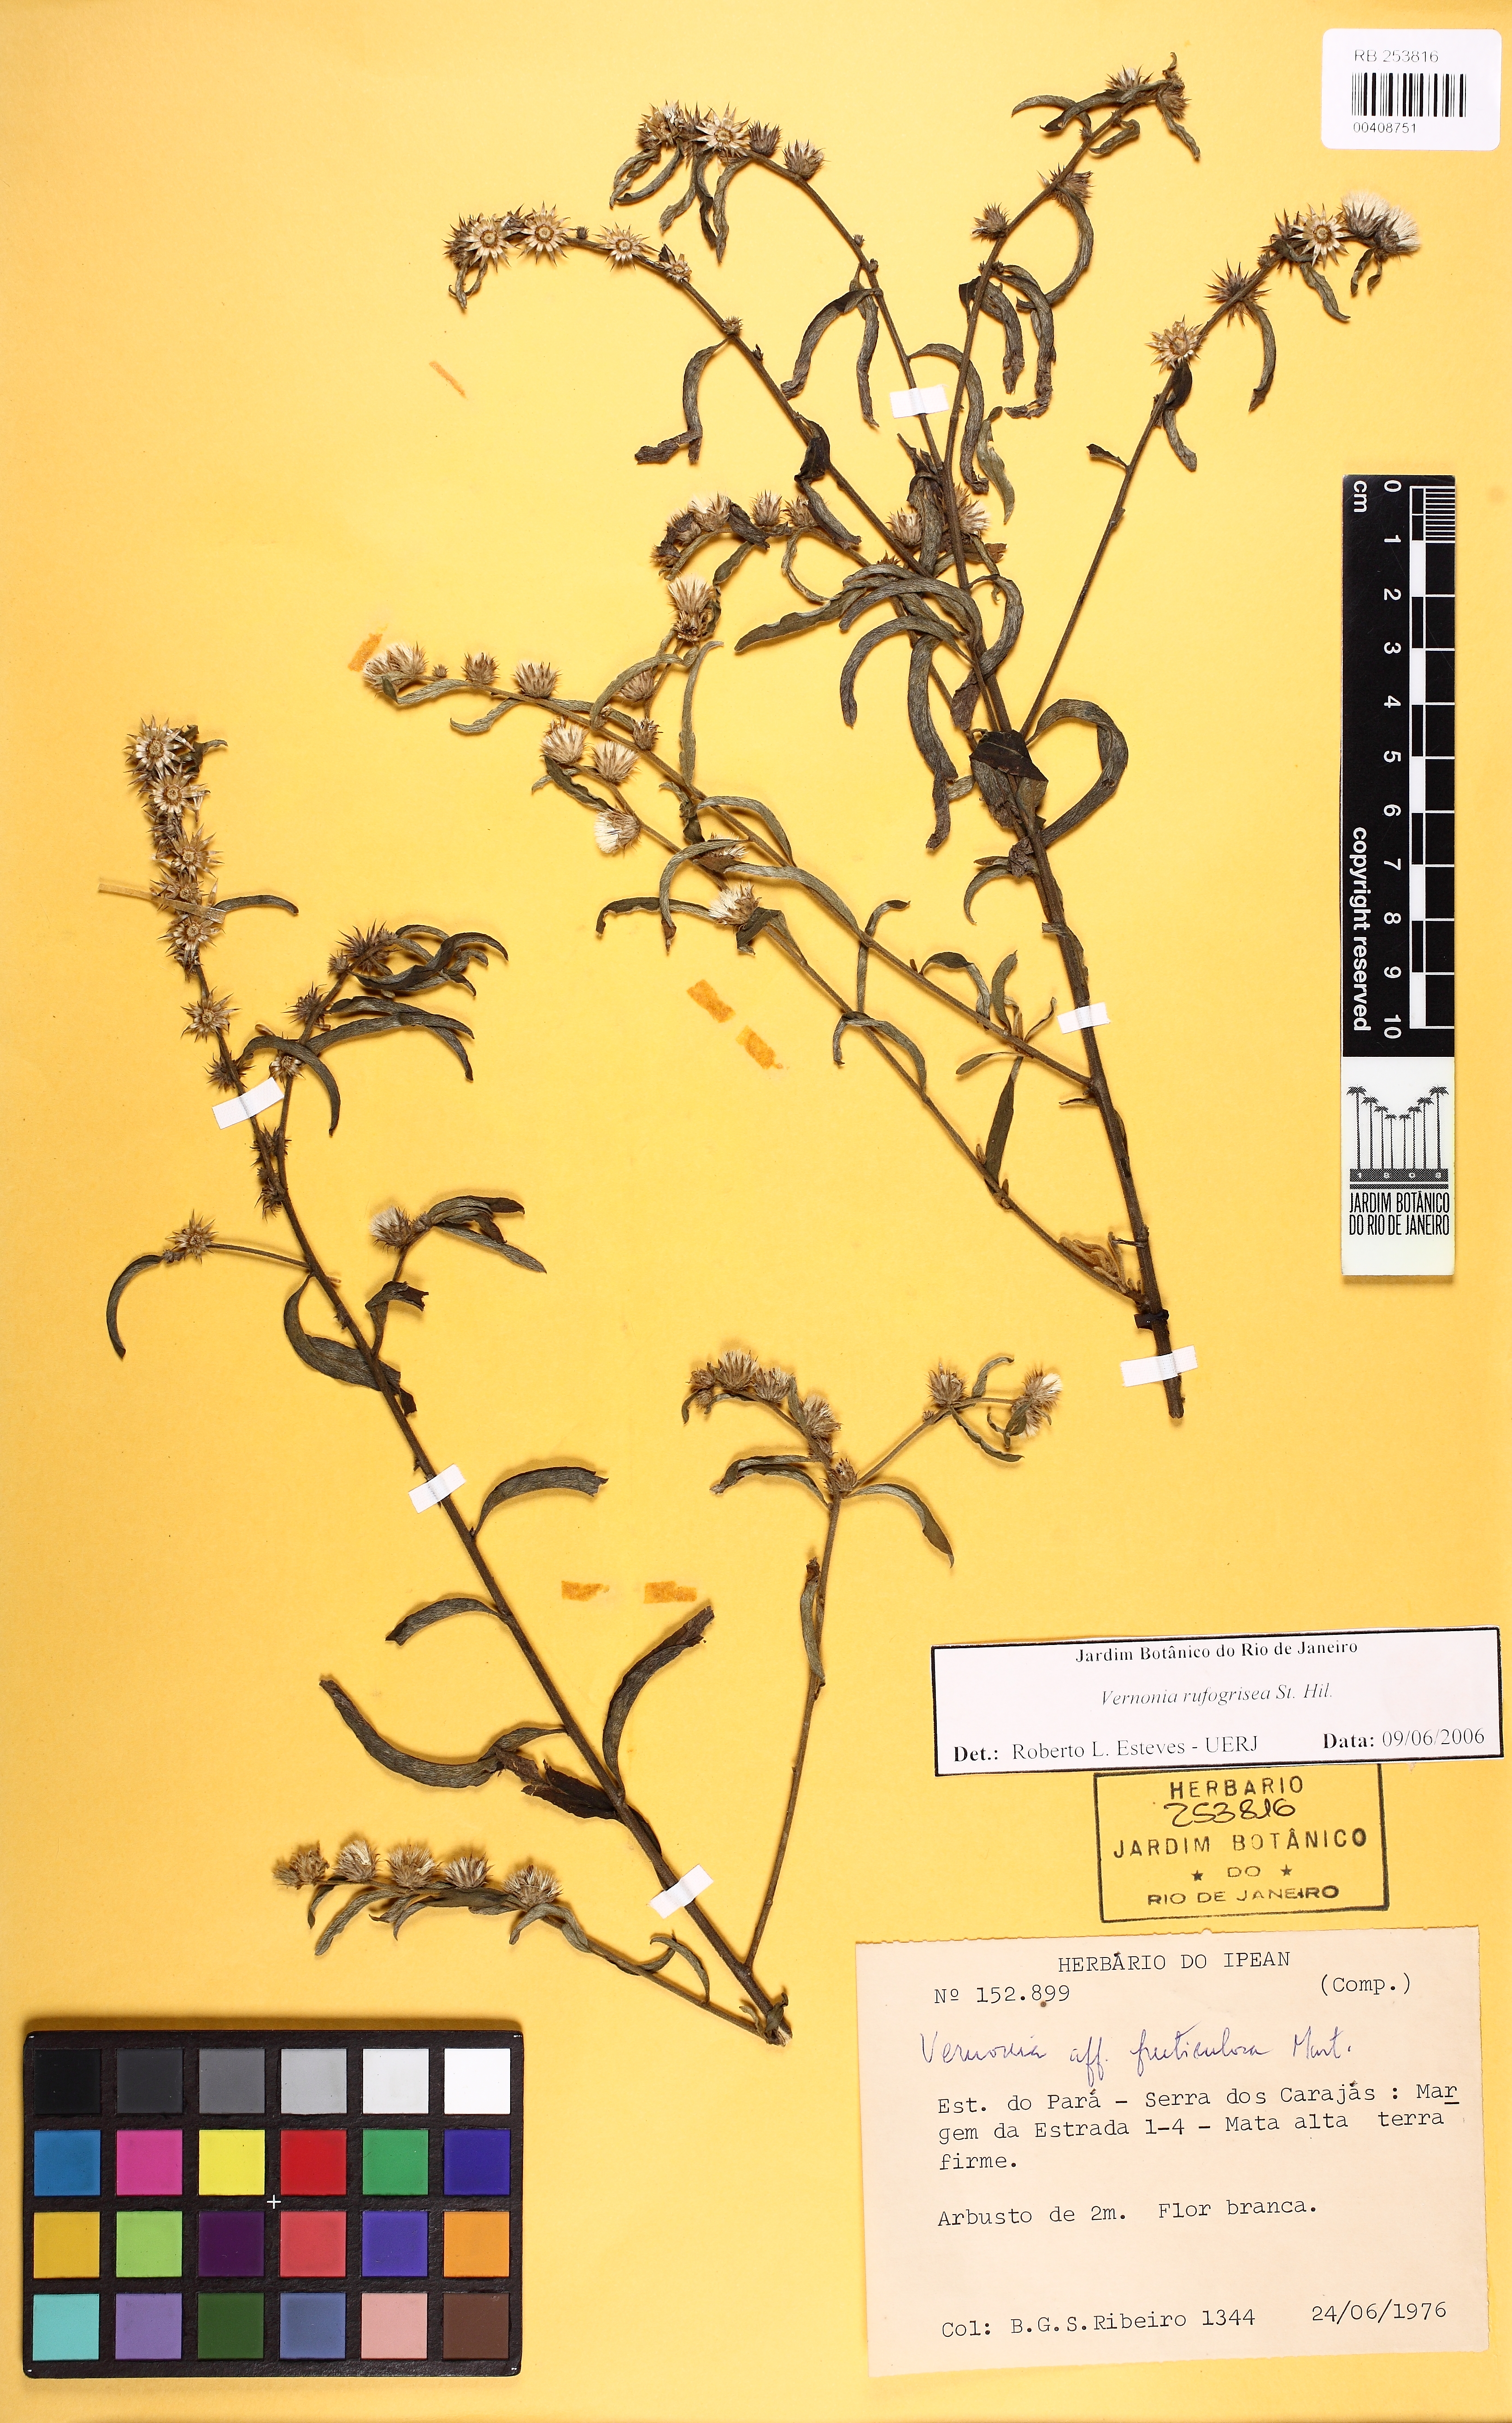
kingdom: Plantae
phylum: Tracheophyta
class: Magnoliopsida
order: Asterales
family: Asteraceae
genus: Lepidaploa
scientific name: Lepidaploa arenaria
